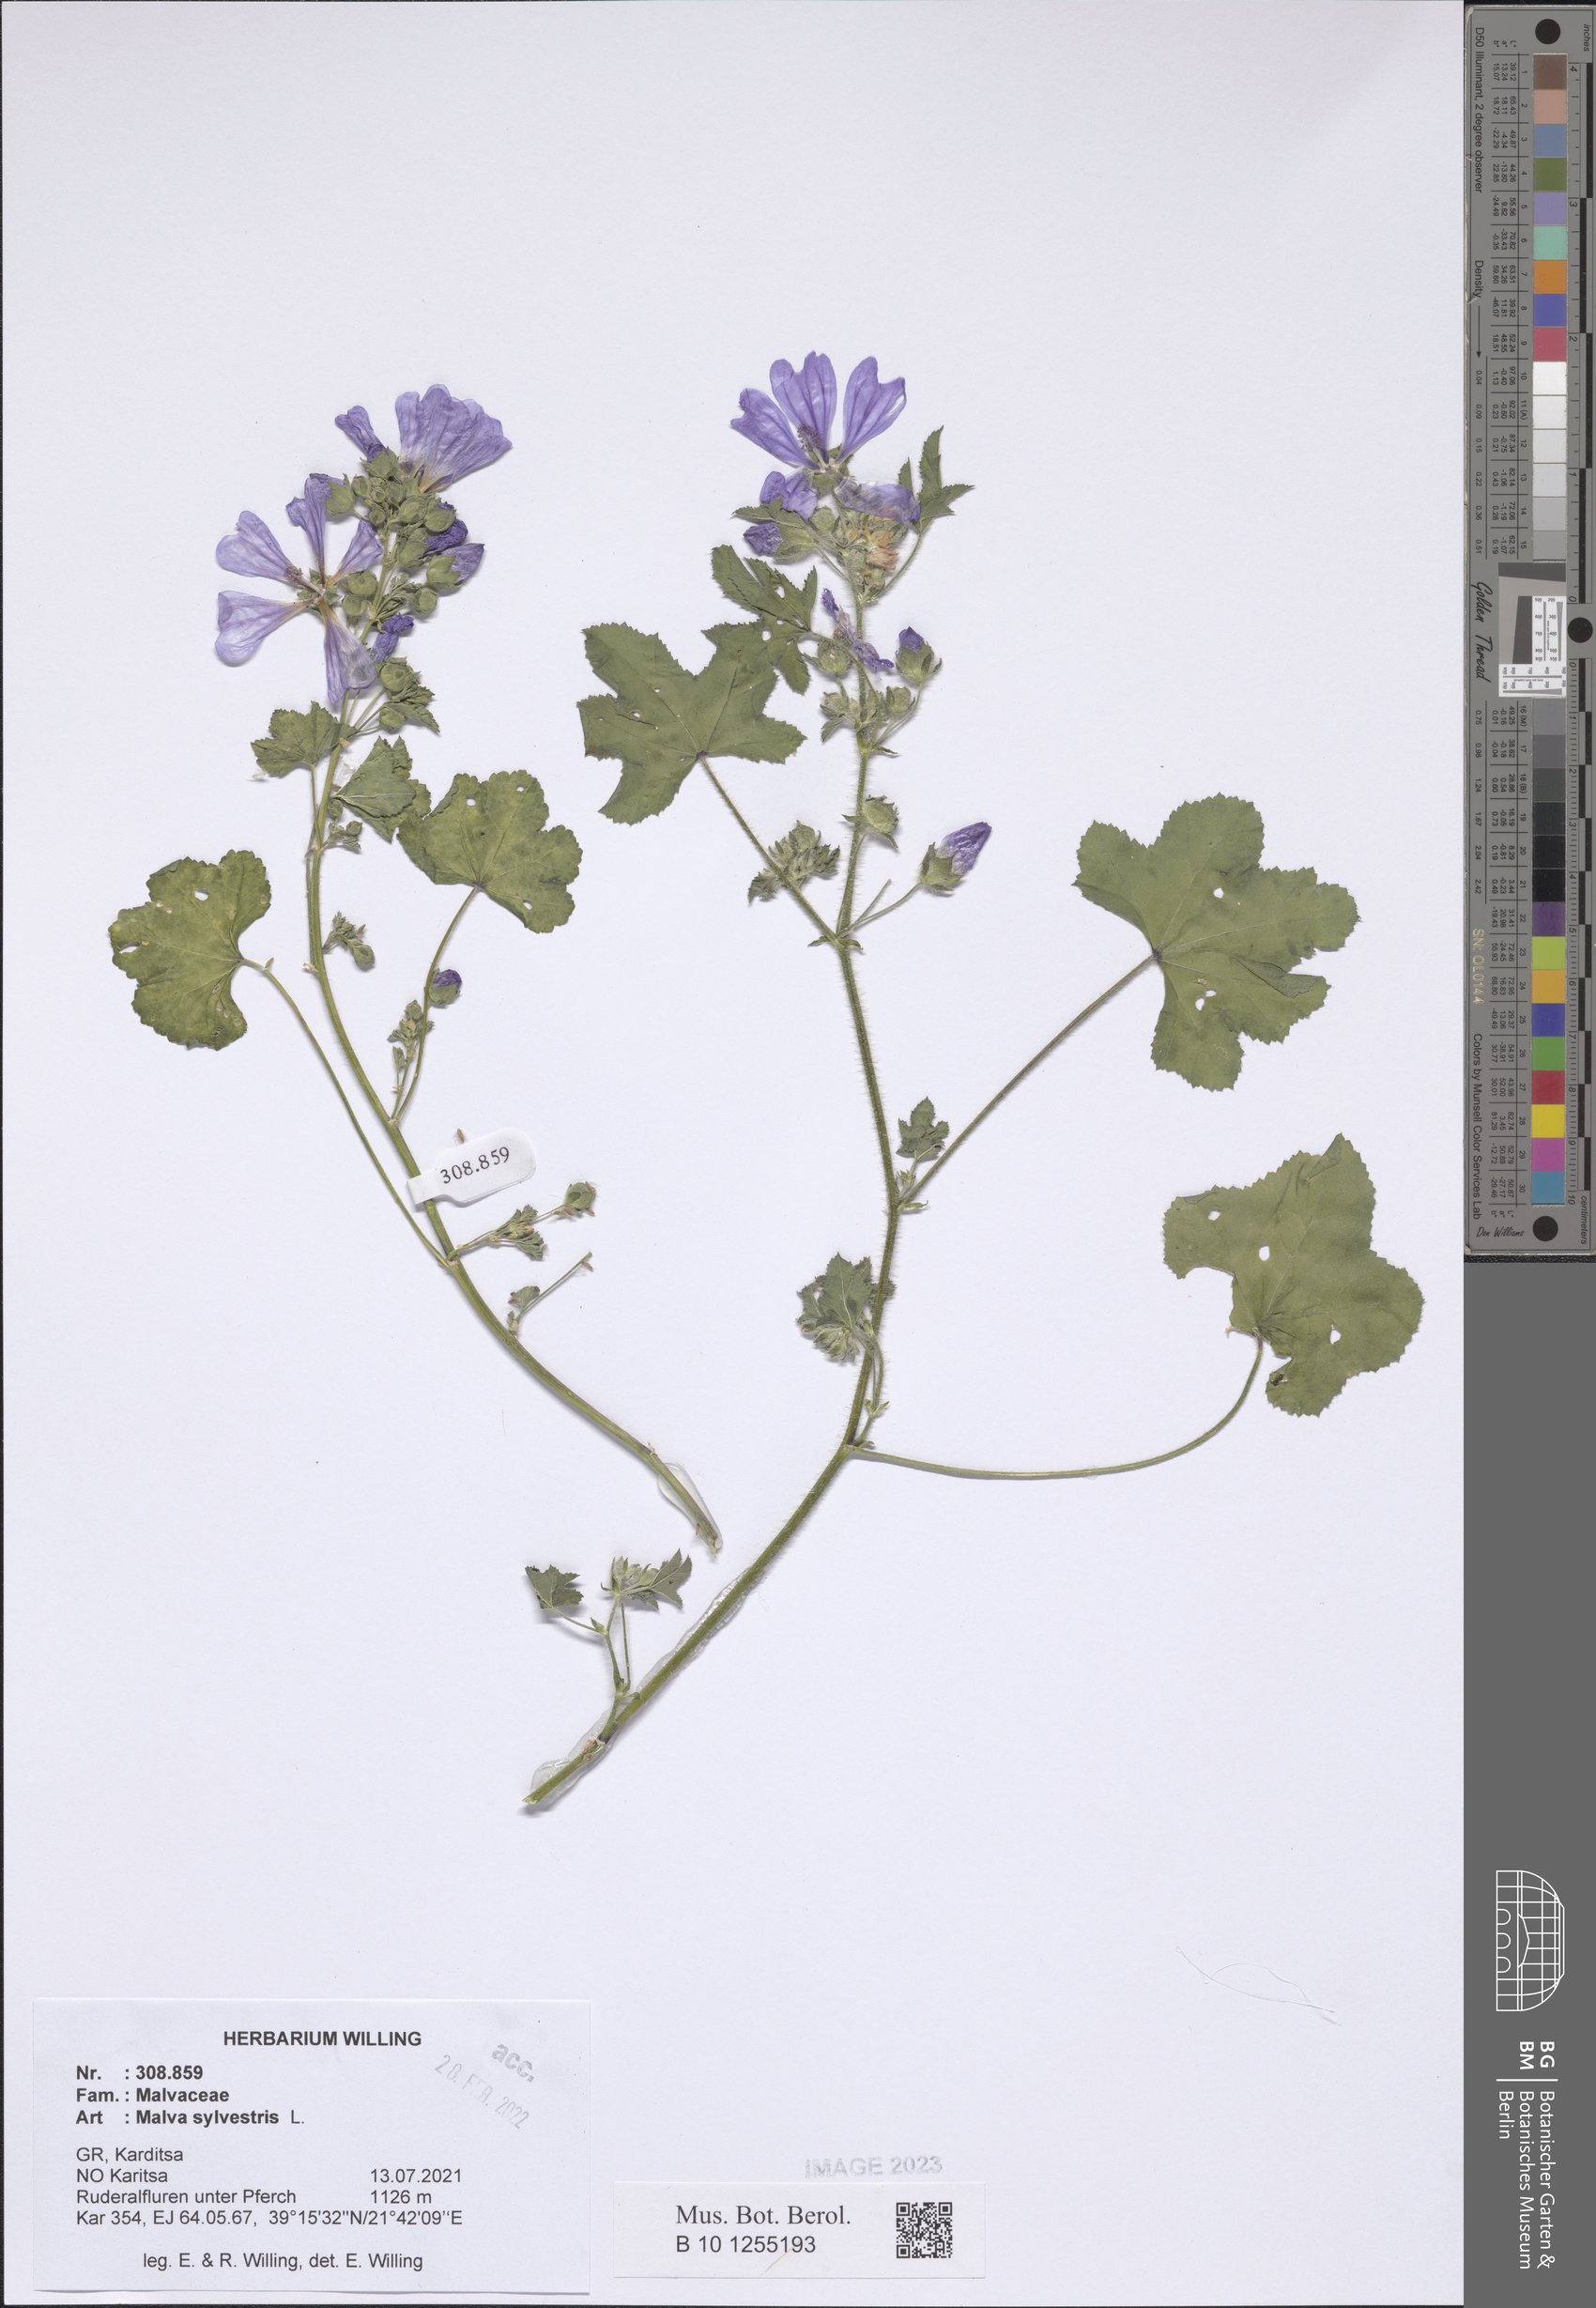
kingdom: Plantae
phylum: Tracheophyta
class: Magnoliopsida
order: Malvales
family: Malvaceae
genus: Malva
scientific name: Malva sylvestris
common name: Common mallow
